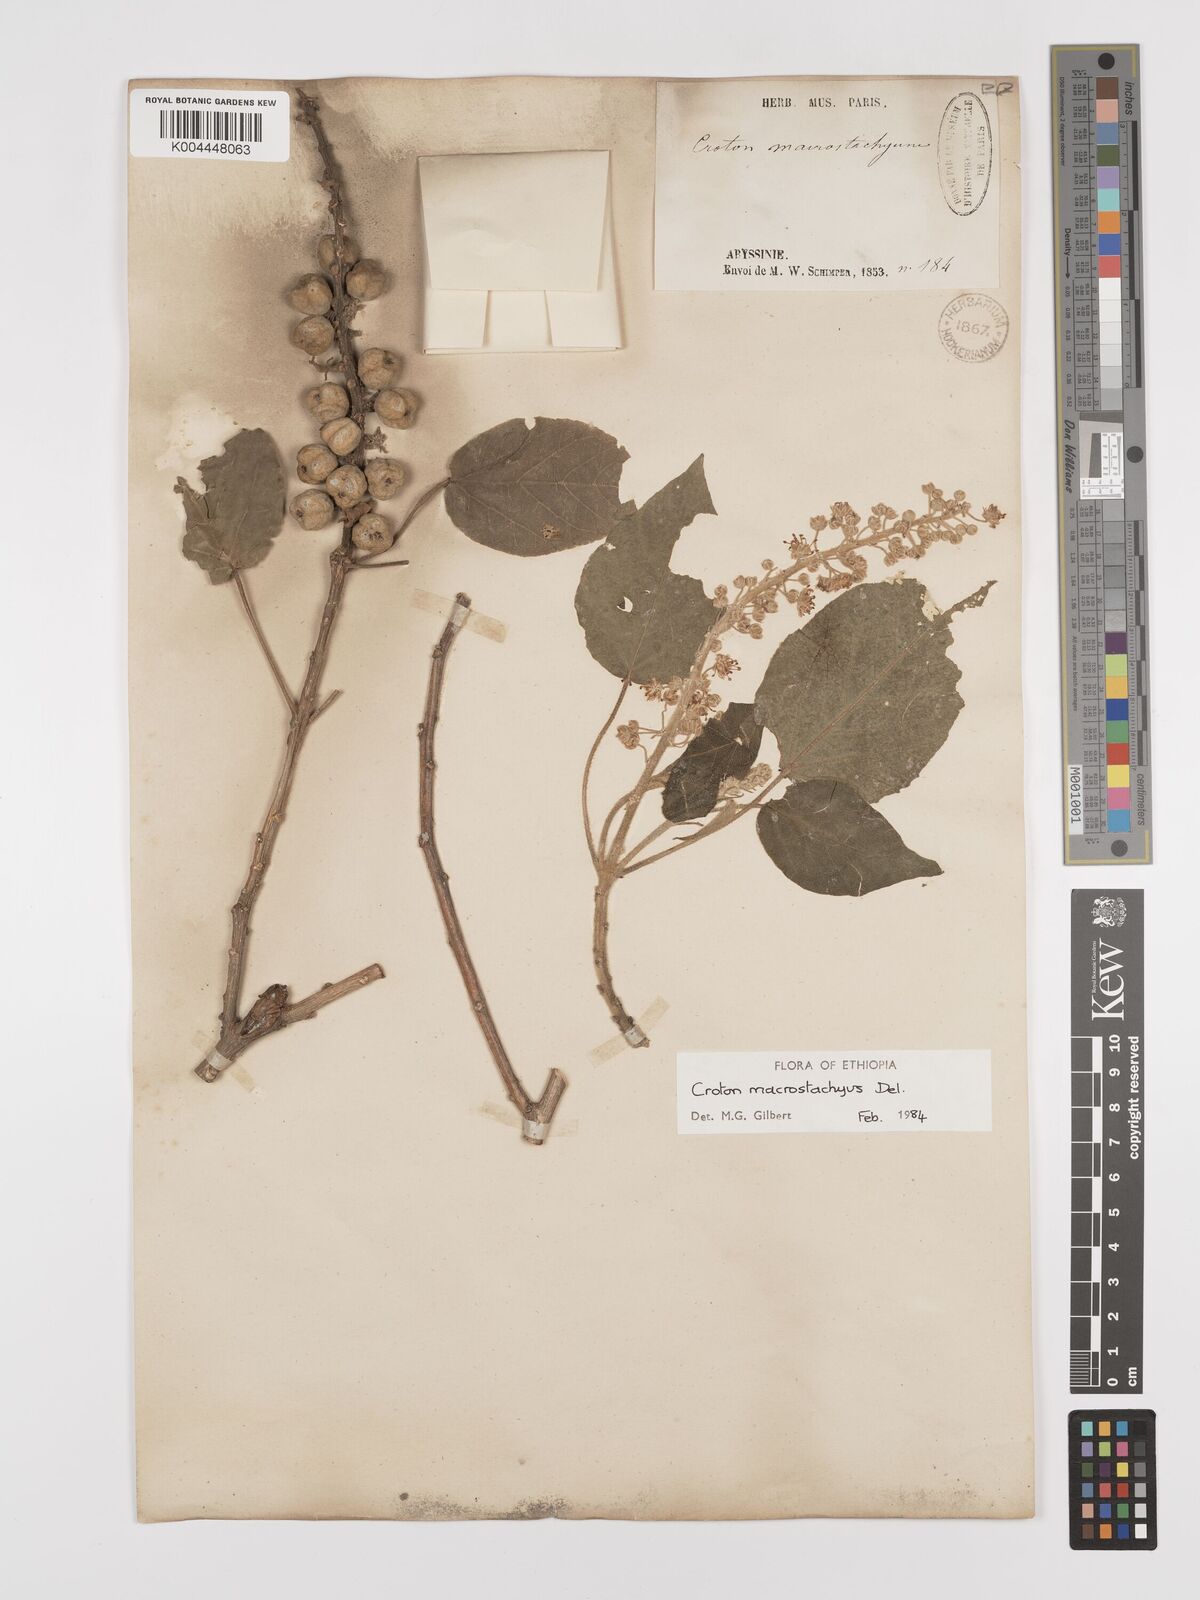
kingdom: Plantae
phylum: Tracheophyta
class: Magnoliopsida
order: Malpighiales
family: Euphorbiaceae
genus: Croton
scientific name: Croton macrostachyus
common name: Mutundu
